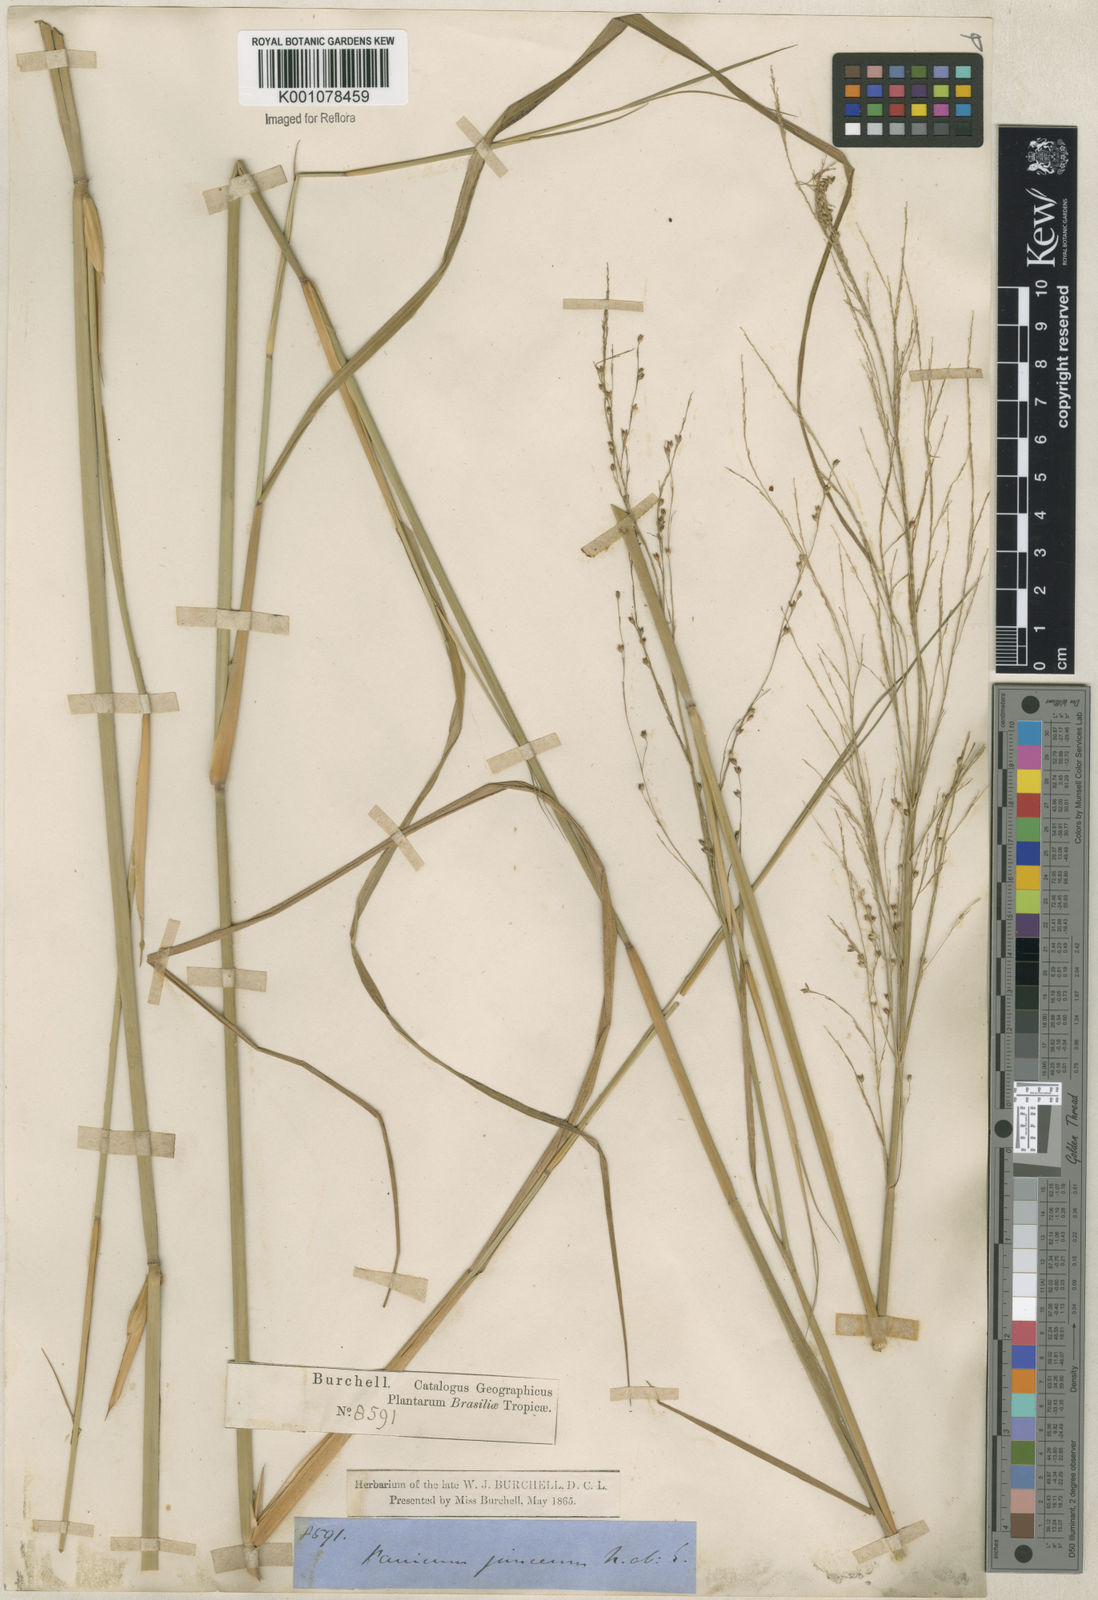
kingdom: Plantae
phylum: Tracheophyta
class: Liliopsida
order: Poales
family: Poaceae
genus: Panicum
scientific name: Panicum tricholaenoides
